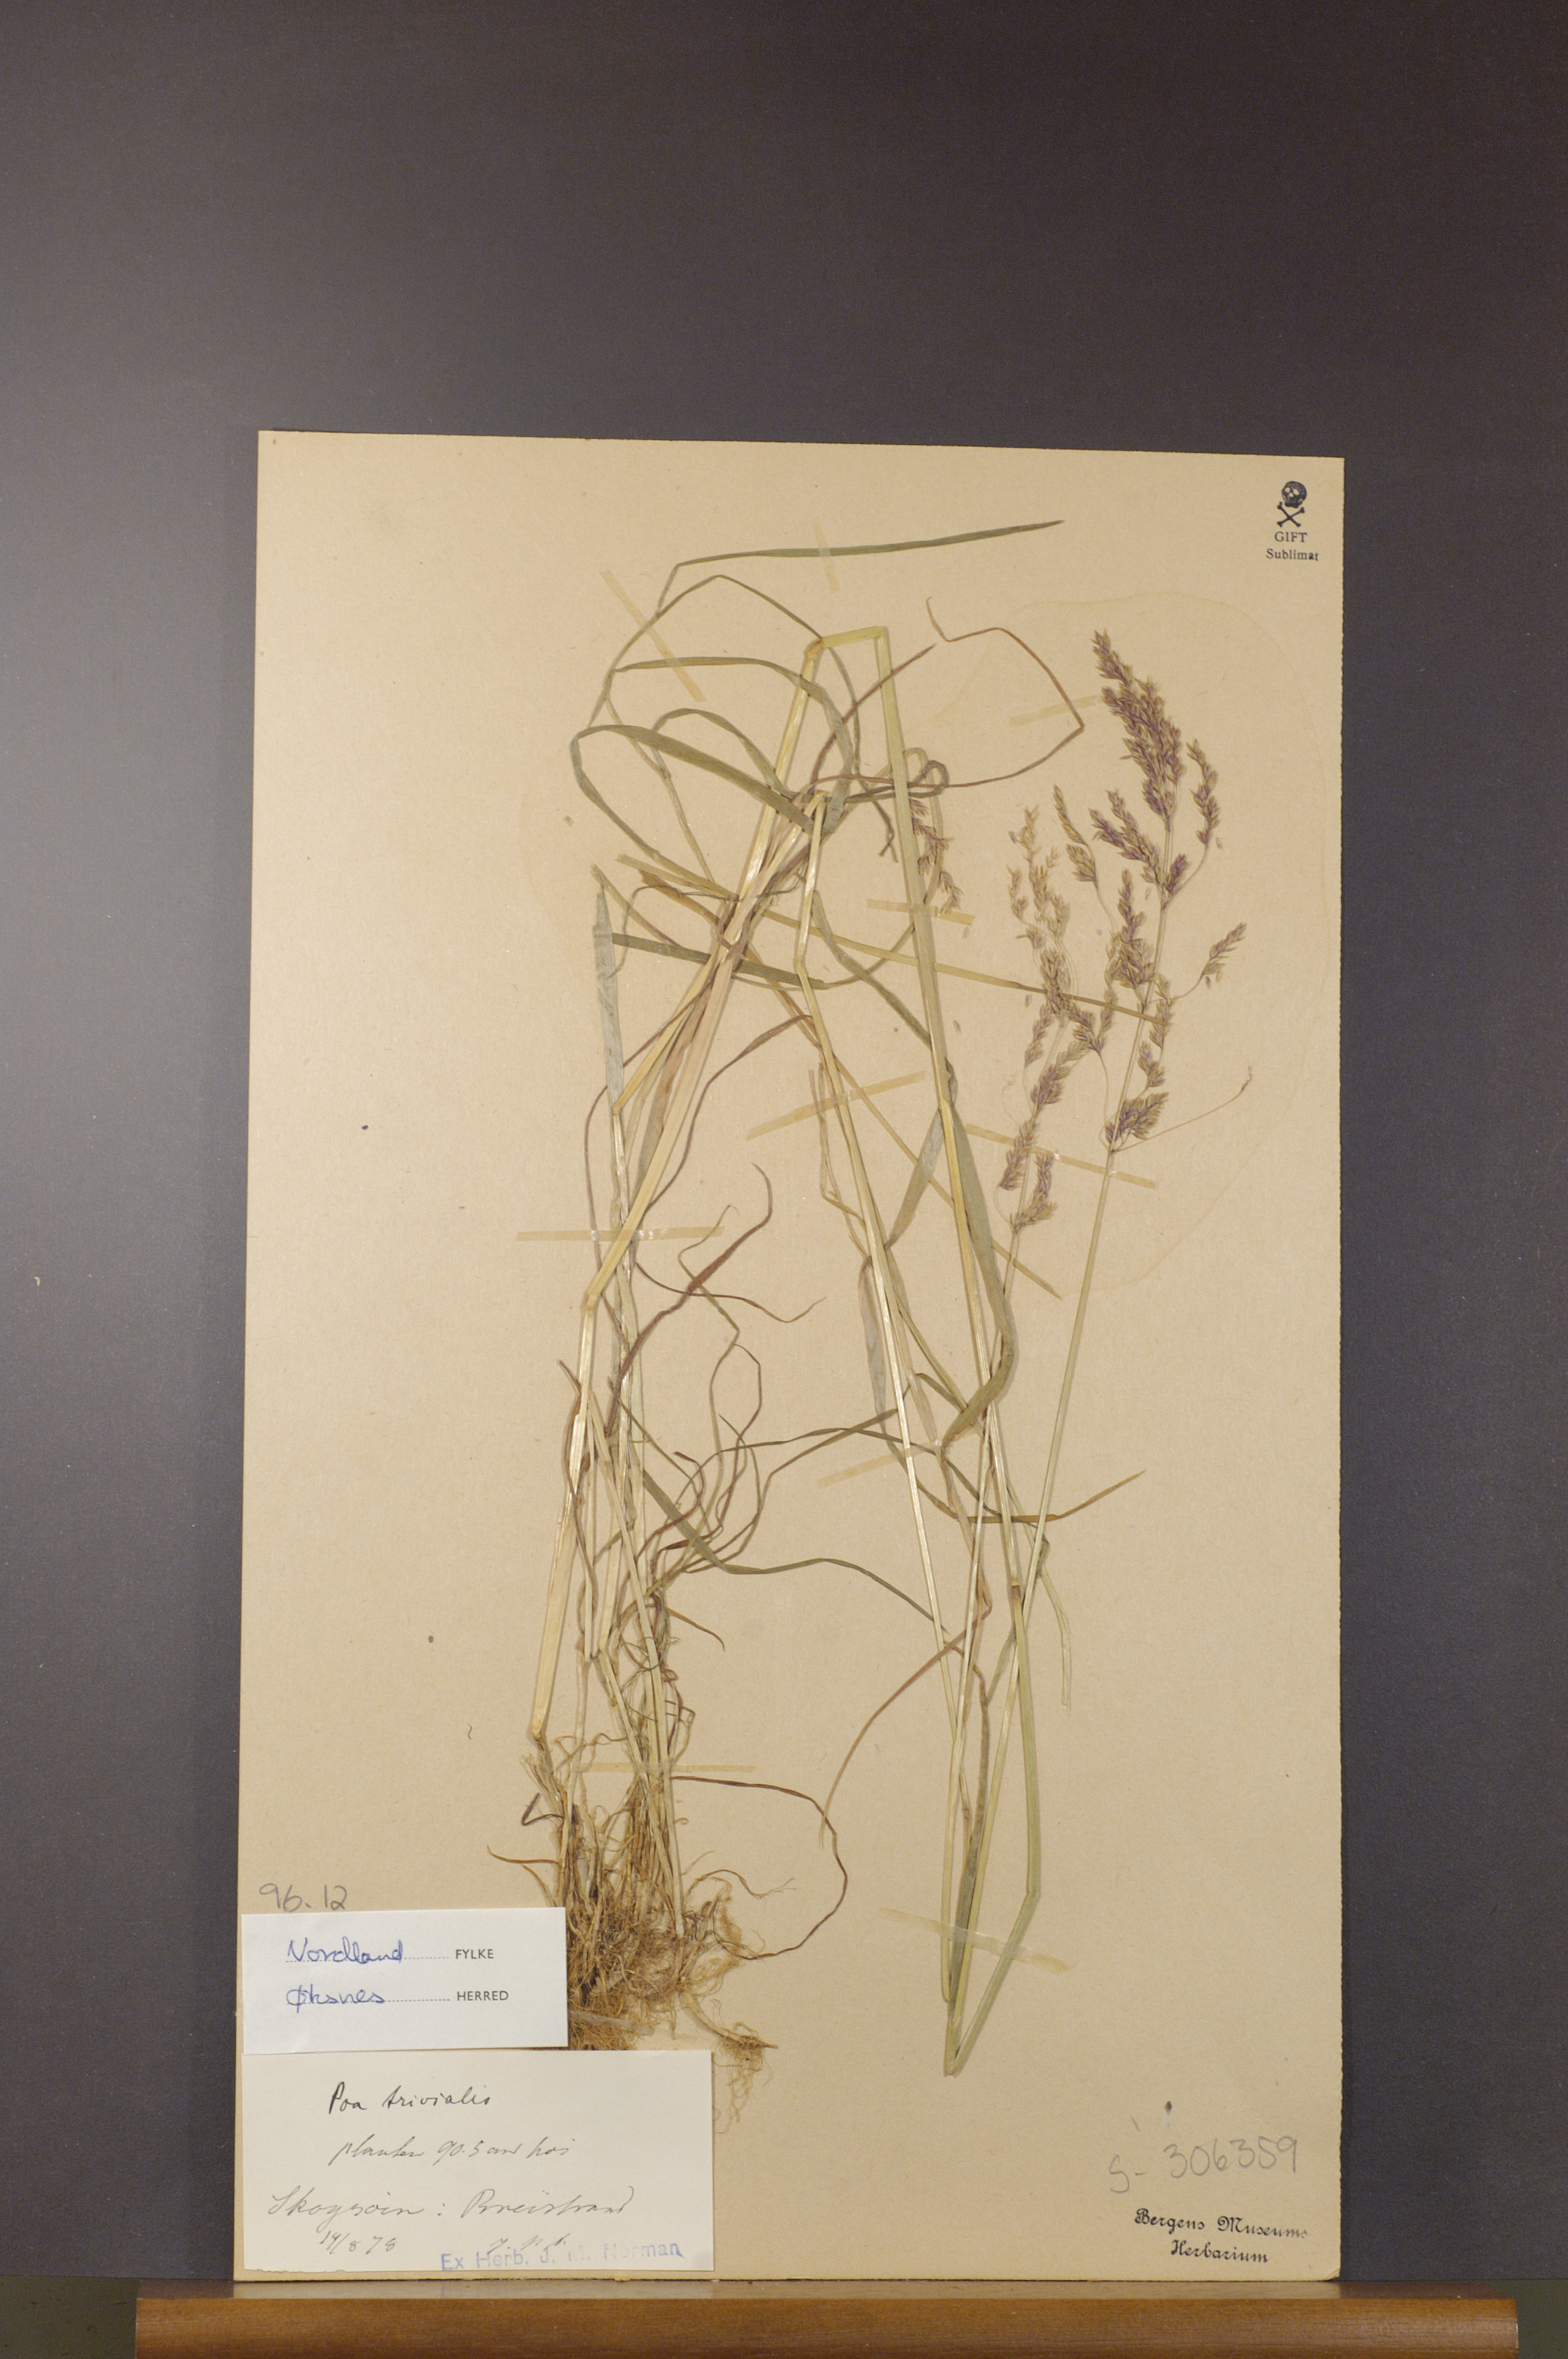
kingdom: Plantae
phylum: Tracheophyta
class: Liliopsida
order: Poales
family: Poaceae
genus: Poa
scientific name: Poa trivialis
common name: Rough bluegrass
